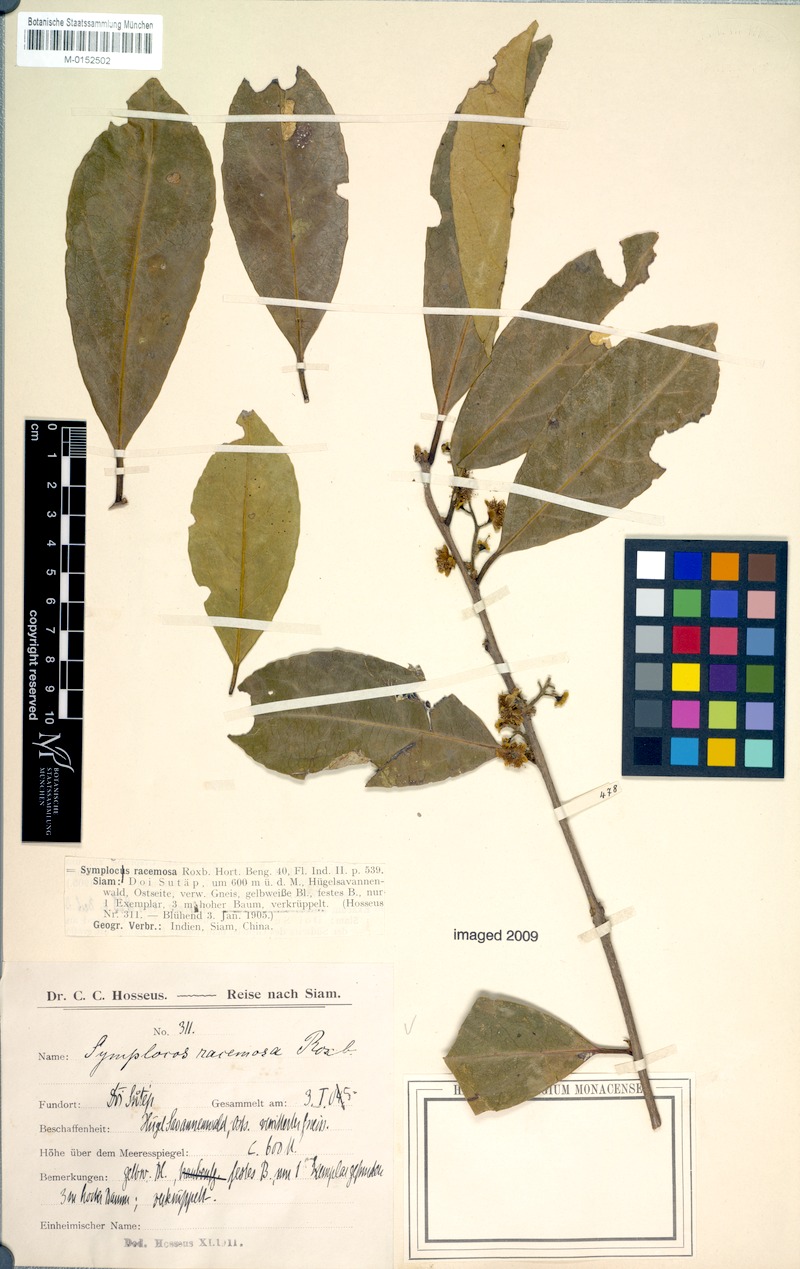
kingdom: Plantae
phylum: Tracheophyta
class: Magnoliopsida
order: Ericales
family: Symplocaceae
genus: Symplocos
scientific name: Symplocos racemosa
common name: Lodhtree
